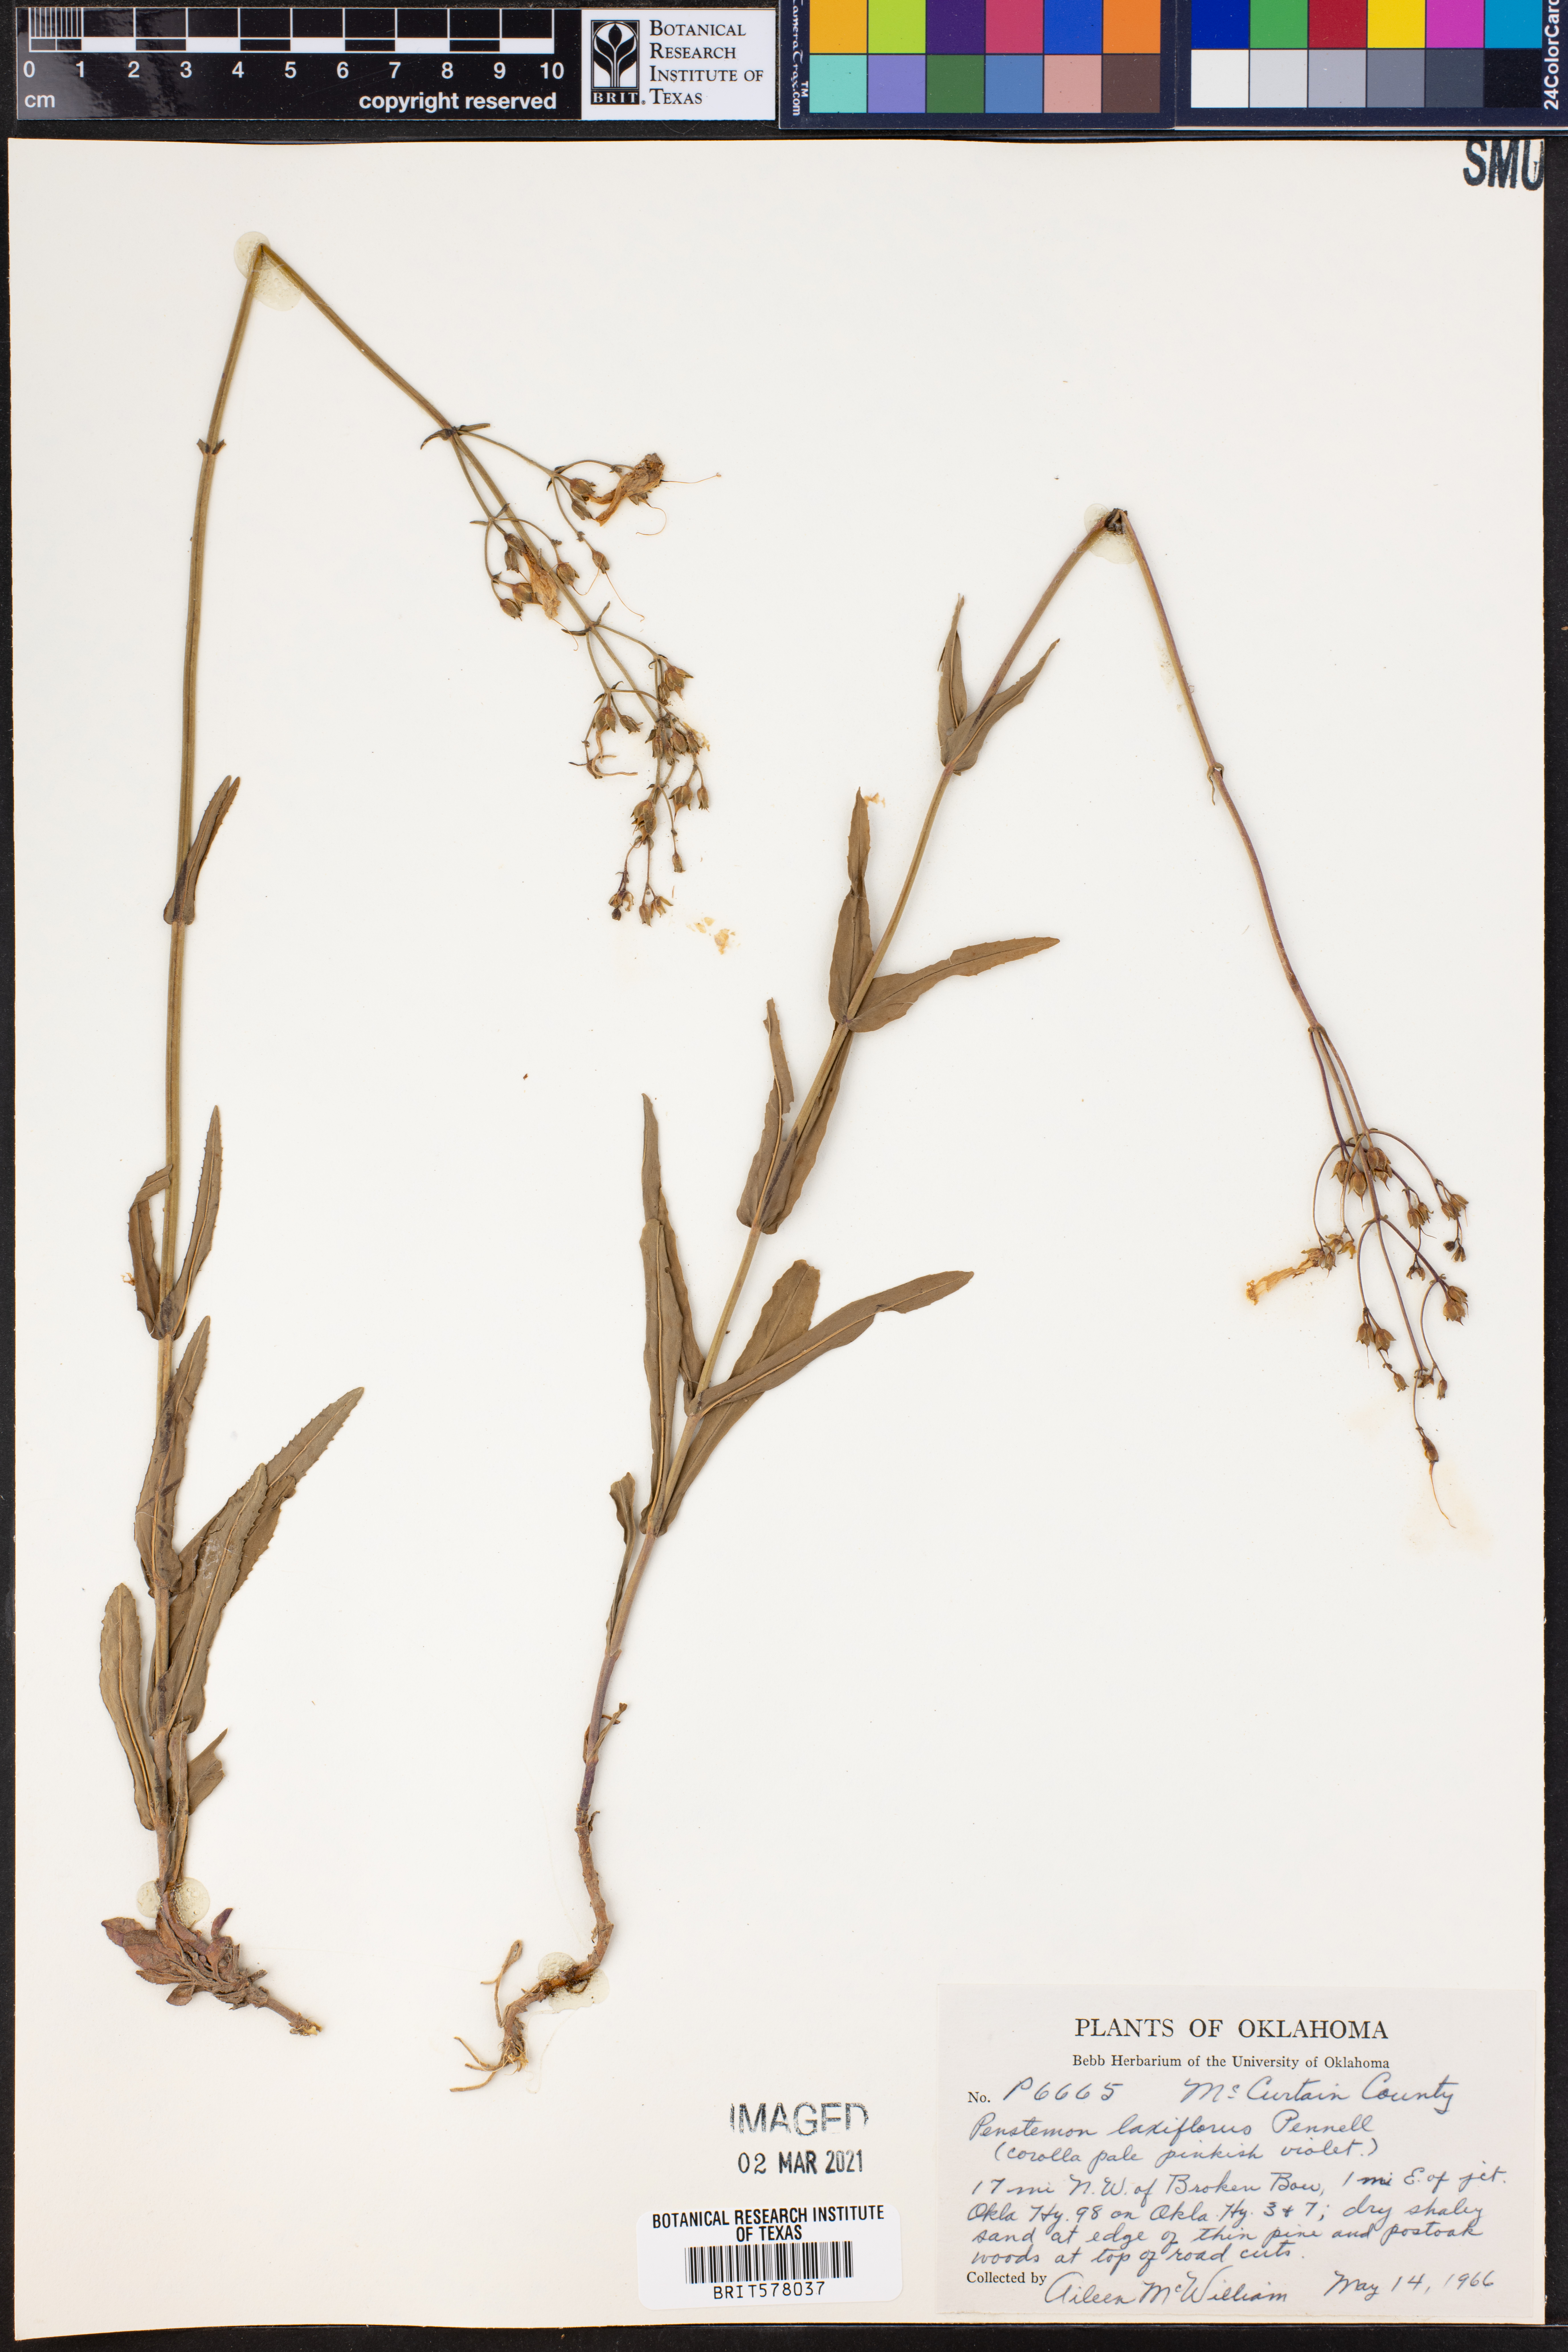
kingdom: Plantae
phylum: Tracheophyta
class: Magnoliopsida
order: Lamiales
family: Plantaginaceae
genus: Penstemon
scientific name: Penstemon laxiflorus
